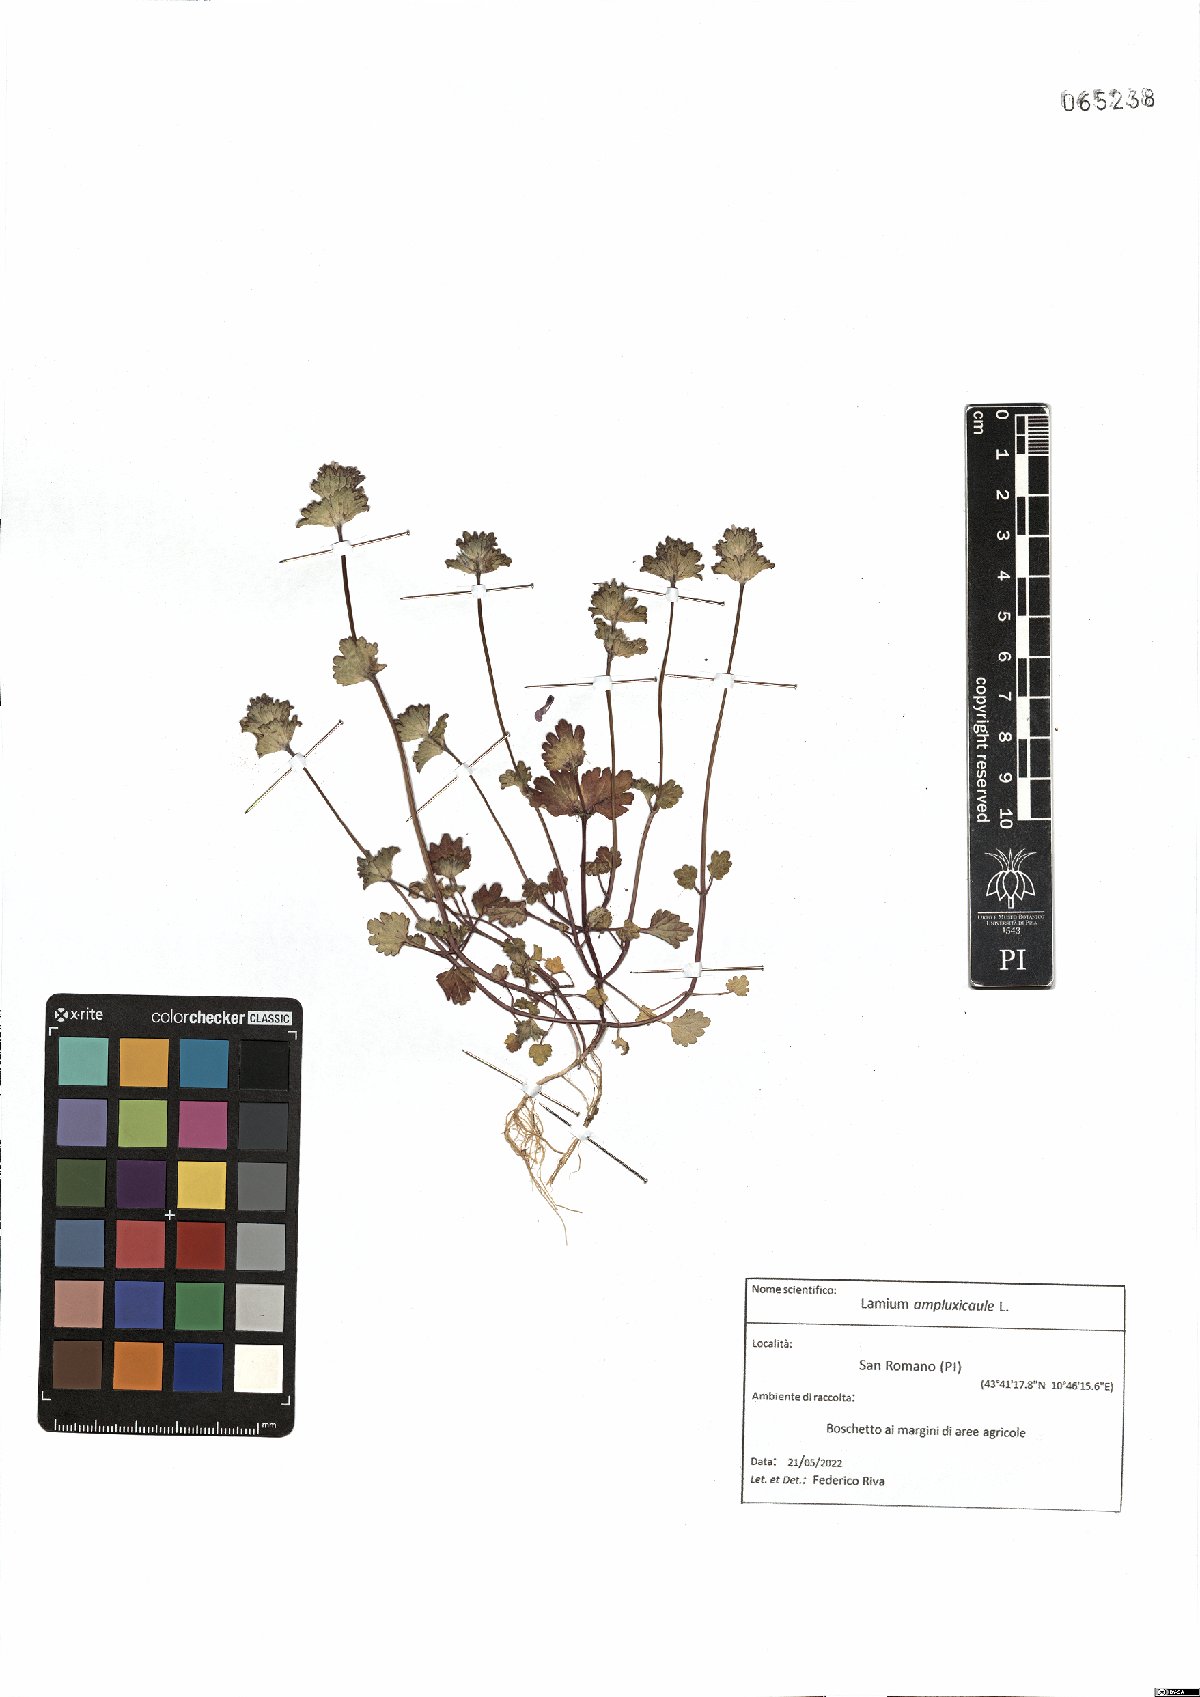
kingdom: Plantae
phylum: Tracheophyta
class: Magnoliopsida
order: Lamiales
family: Lamiaceae
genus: Lamium
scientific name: Lamium amplexicaule
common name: Henbit dead-nettle
